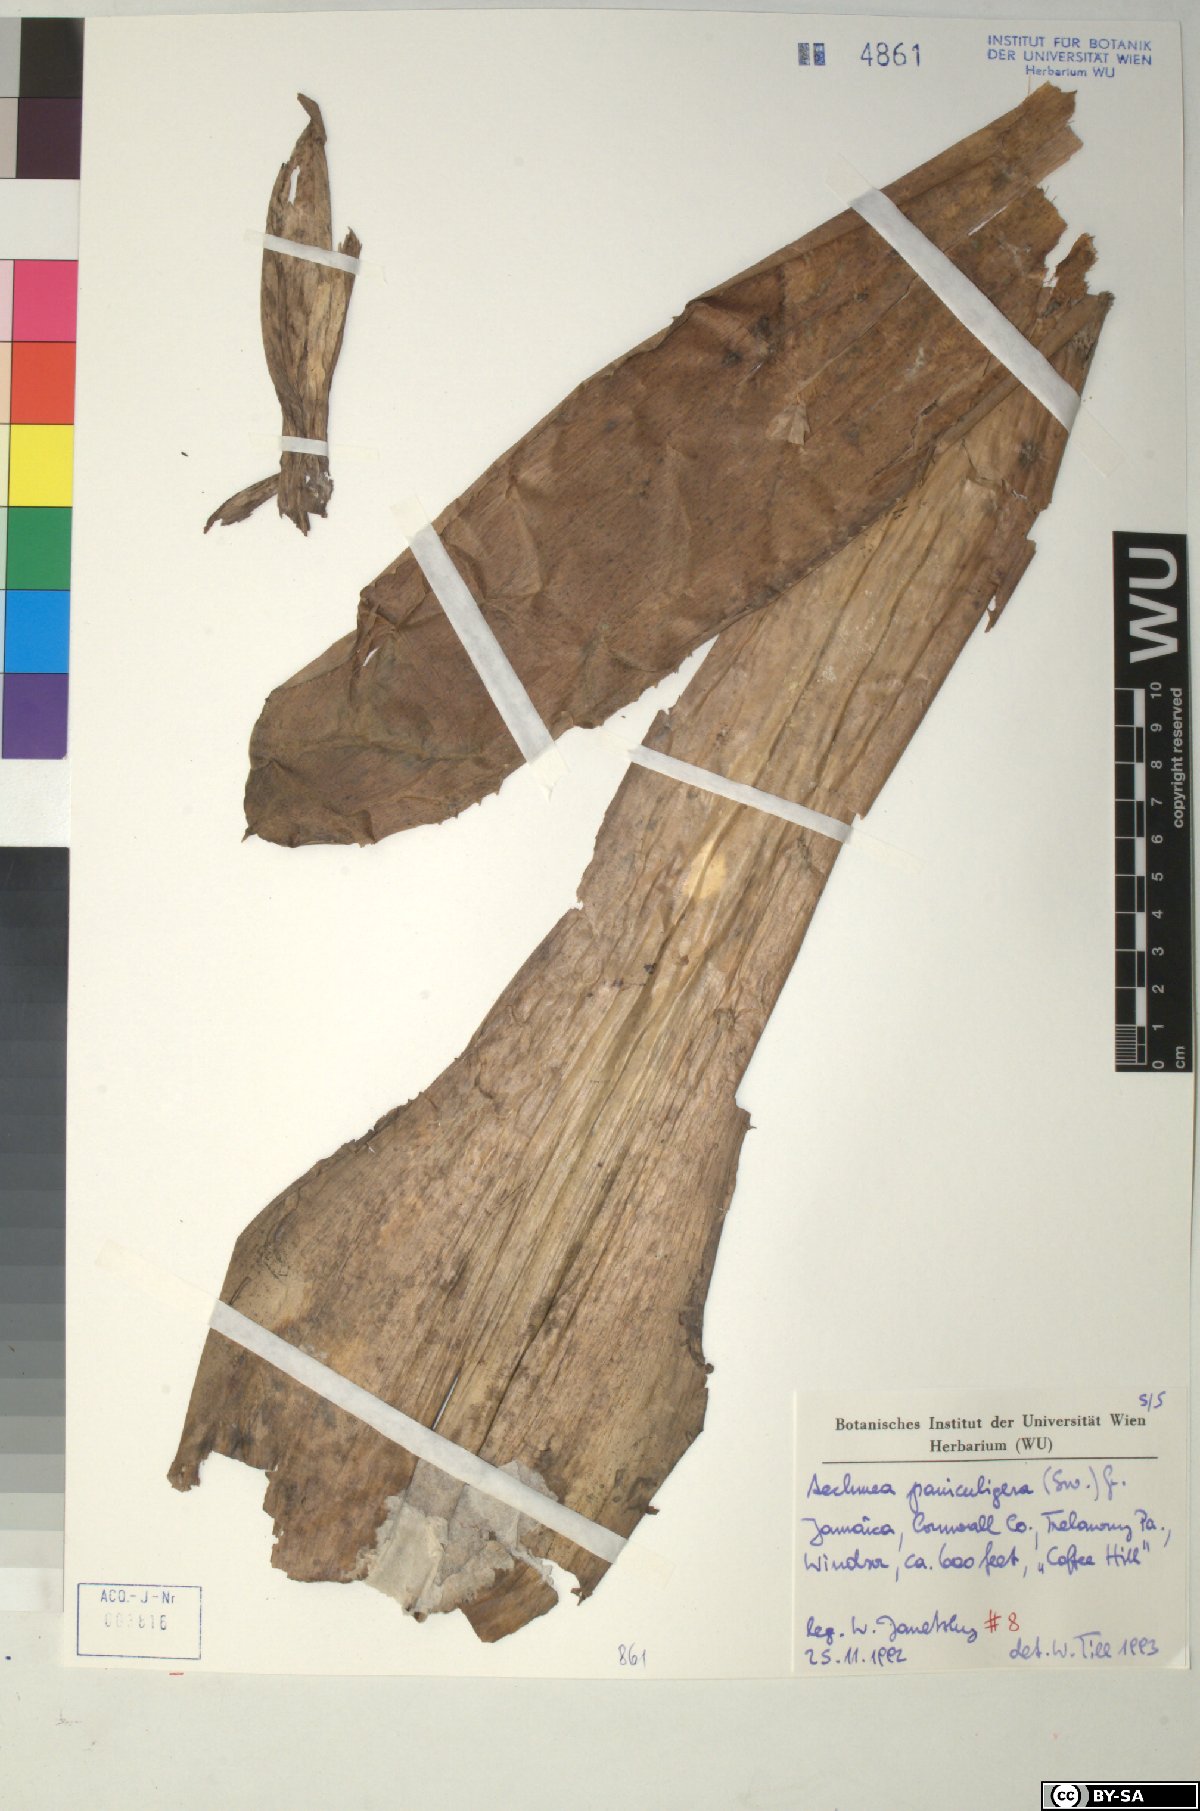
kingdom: Plantae
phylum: Tracheophyta
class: Liliopsida
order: Poales
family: Bromeliaceae
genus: Aechmea
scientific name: Aechmea paniculigera
